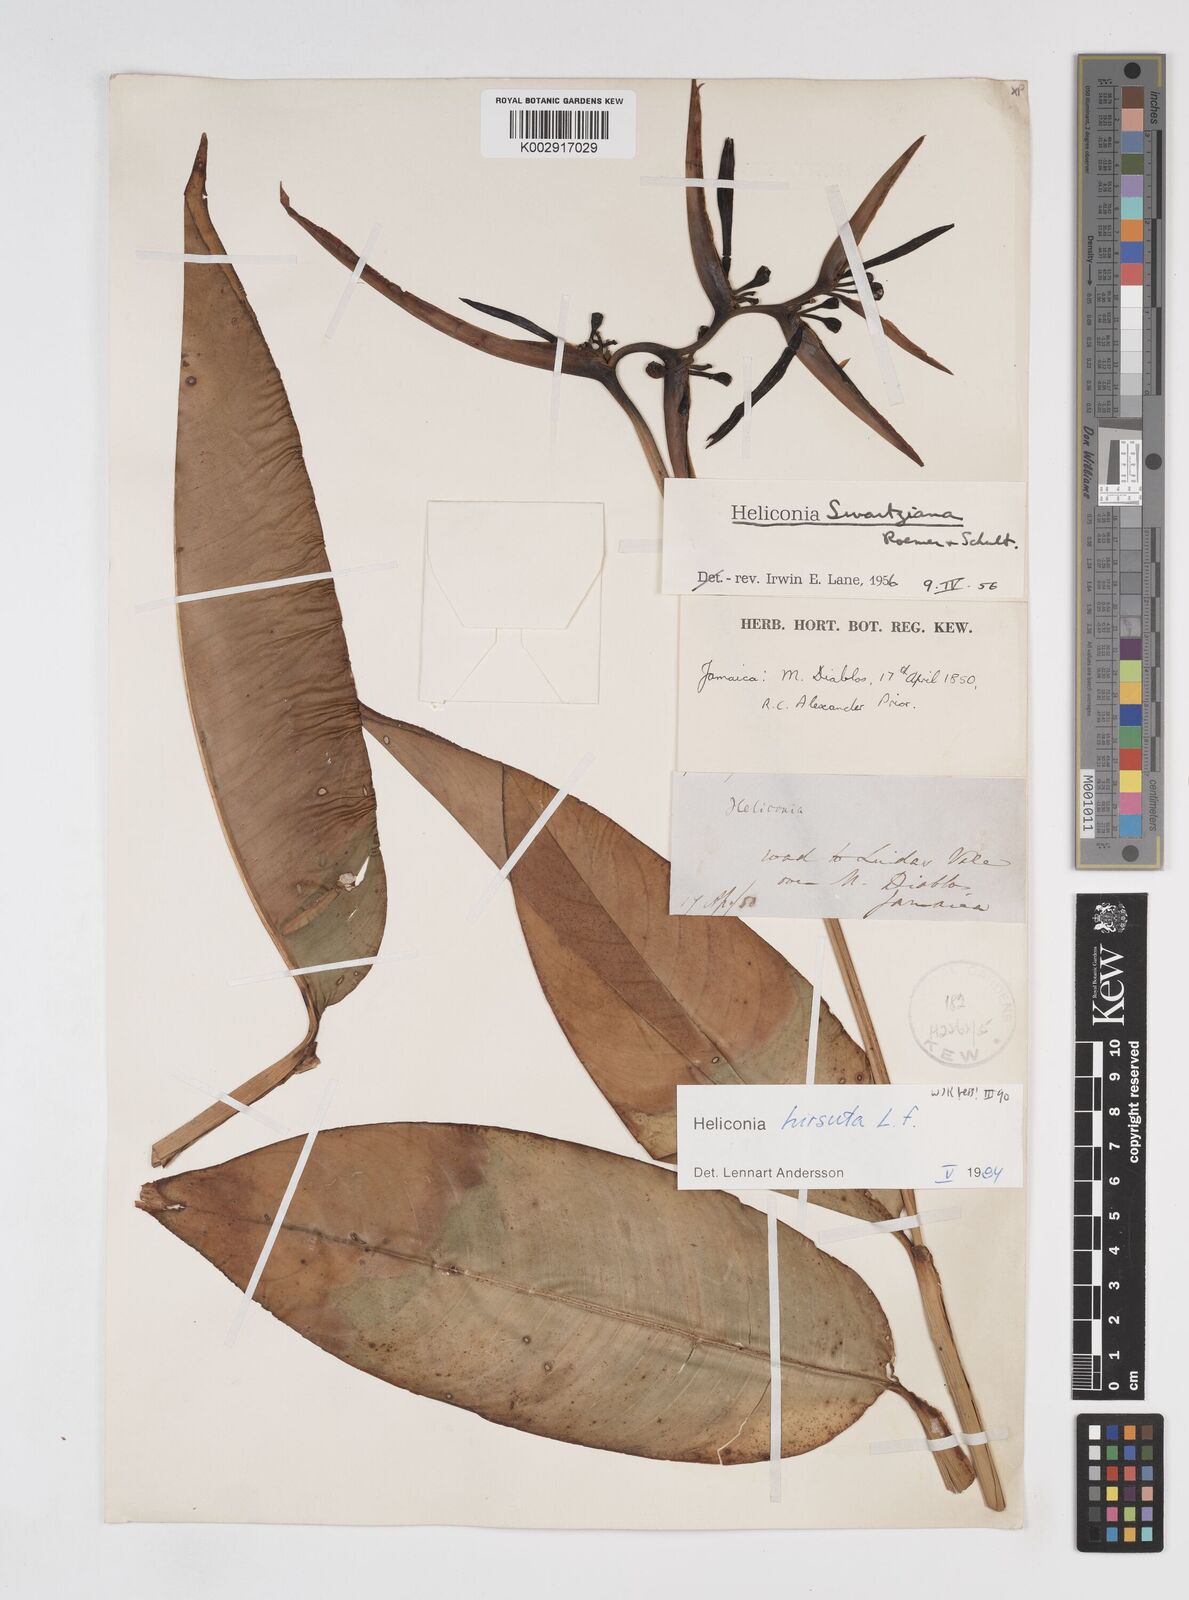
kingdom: Plantae
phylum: Tracheophyta
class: Liliopsida
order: Zingiberales
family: Heliconiaceae
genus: Heliconia
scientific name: Heliconia hirsuta
